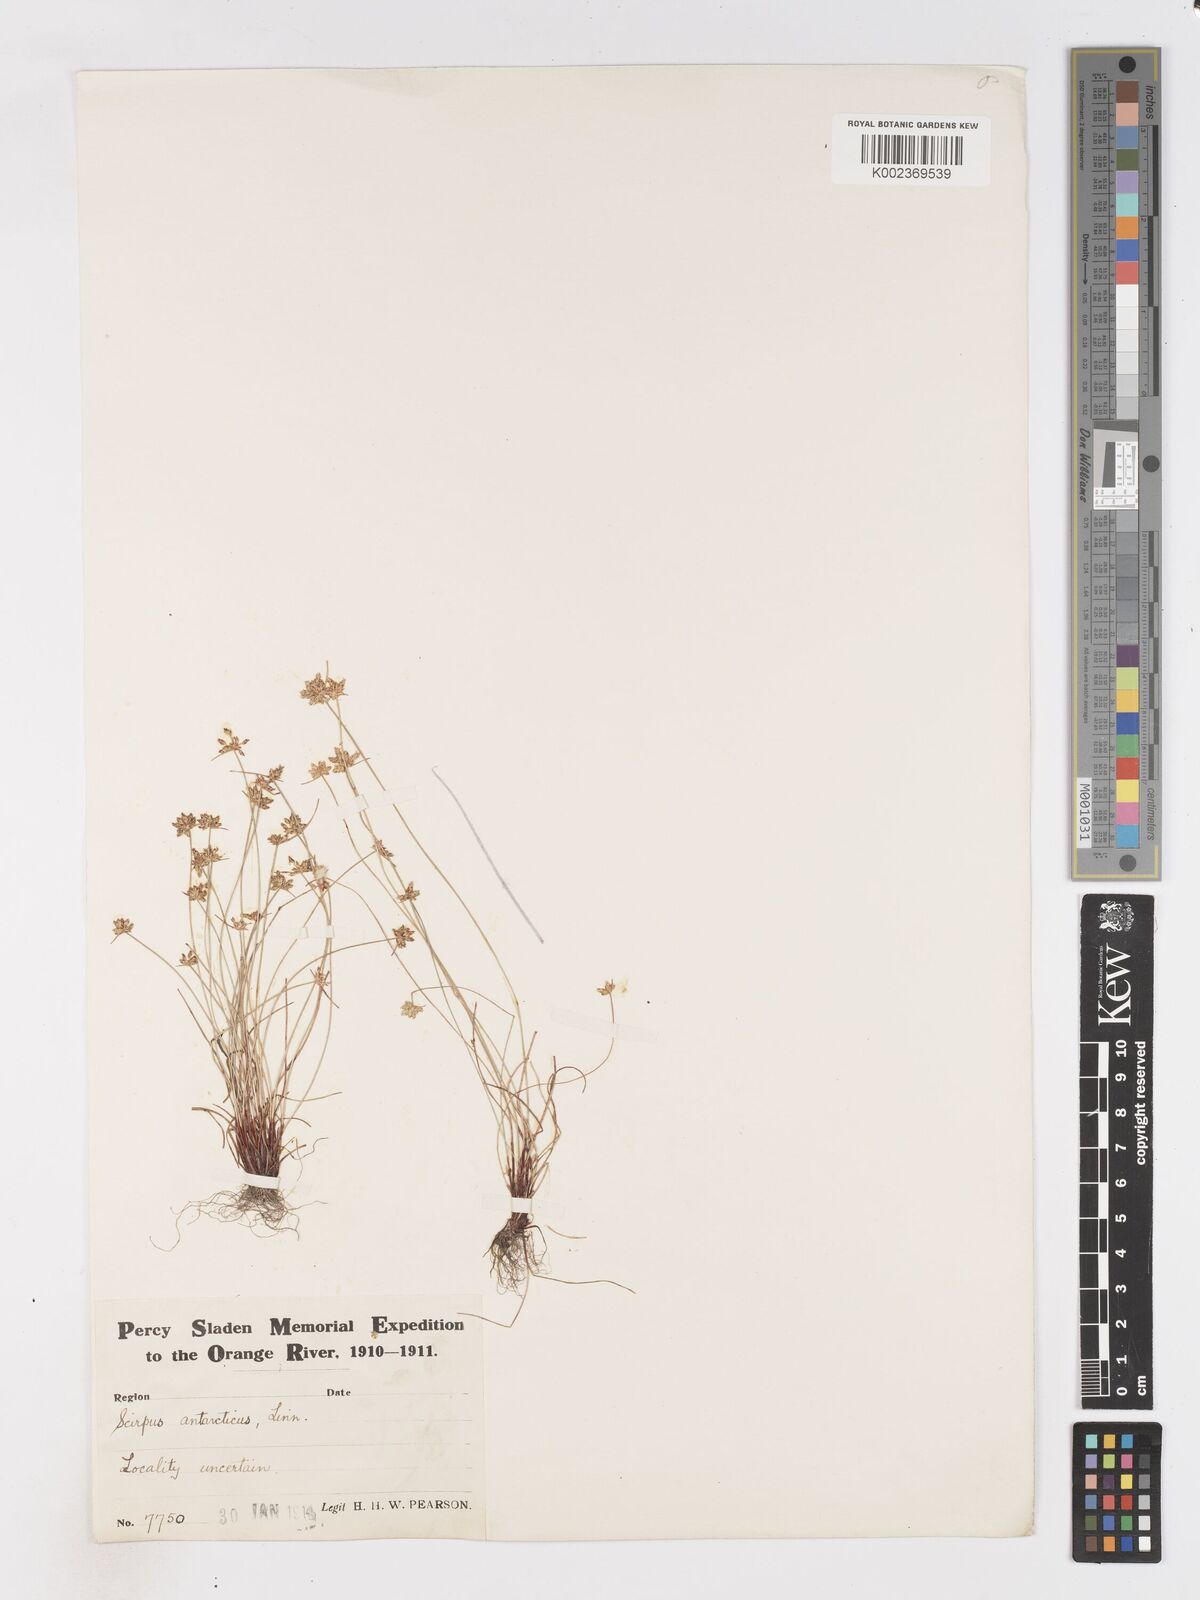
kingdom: Plantae
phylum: Tracheophyta
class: Liliopsida
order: Poales
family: Cyperaceae
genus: Isolepis
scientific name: Isolepis marginata
